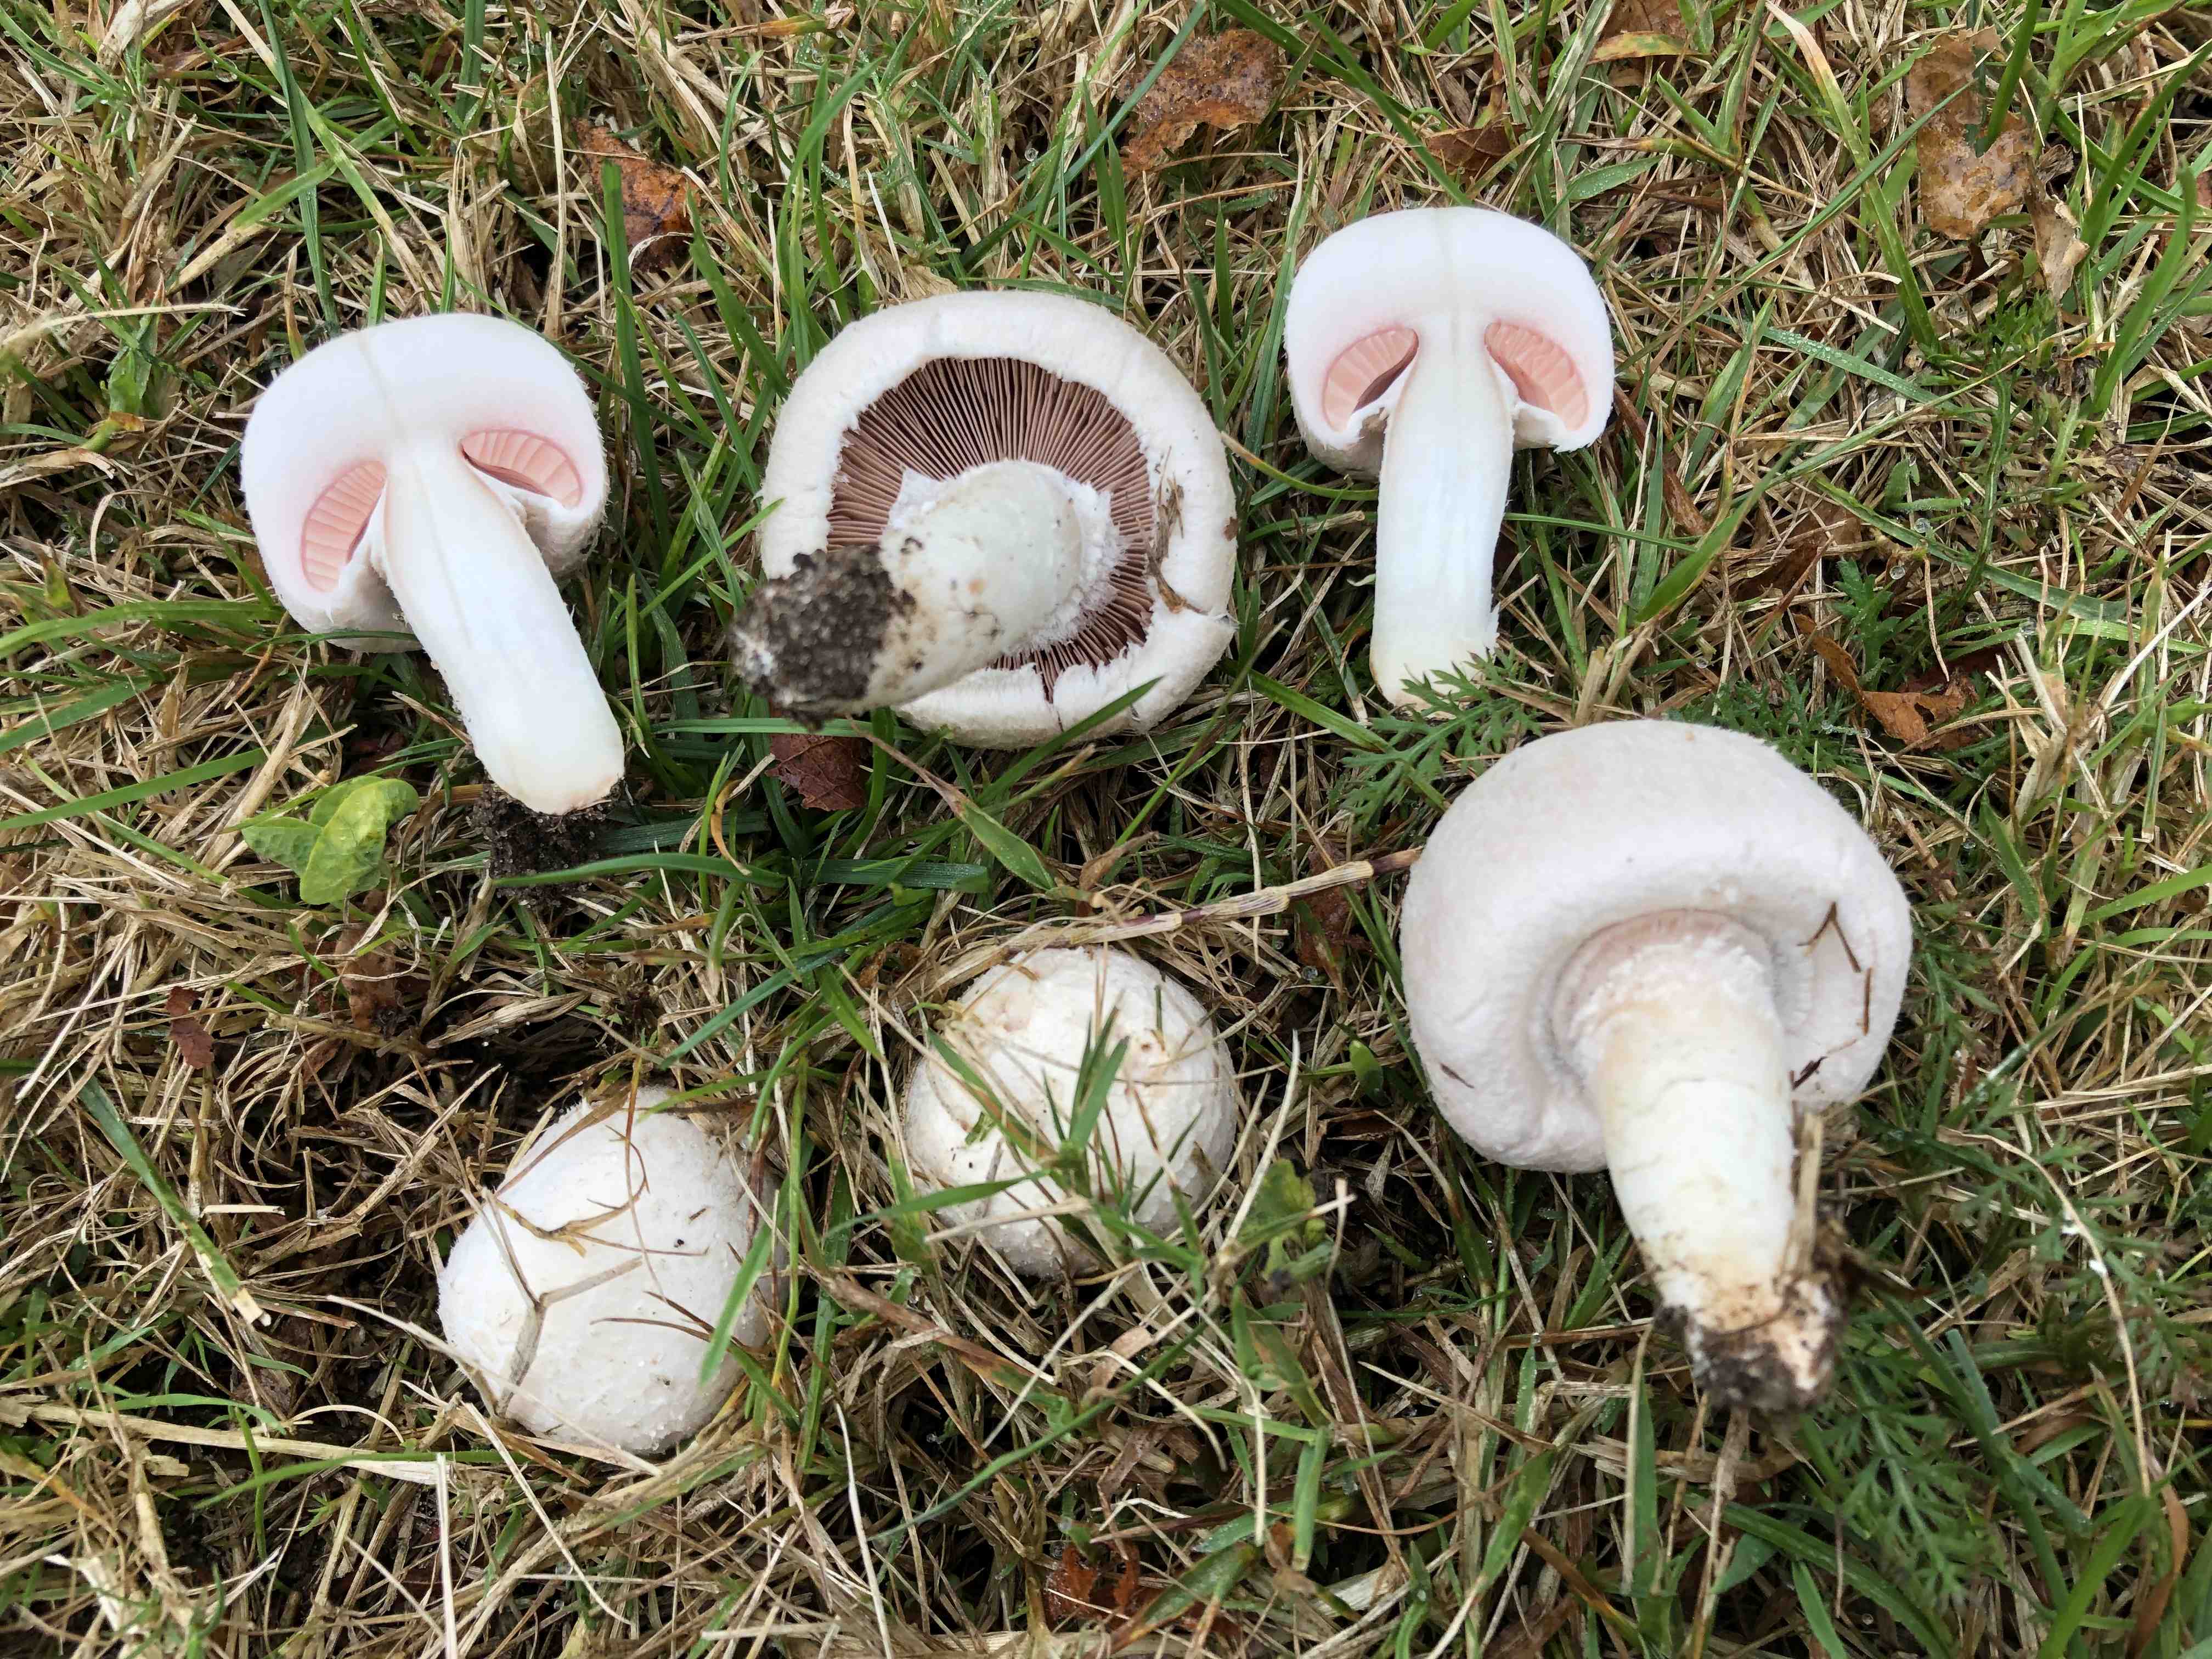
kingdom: Fungi
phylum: Basidiomycota
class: Agaricomycetes
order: Agaricales
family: Agaricaceae
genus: Agaricus
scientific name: Agaricus campestris
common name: mark-champignon
